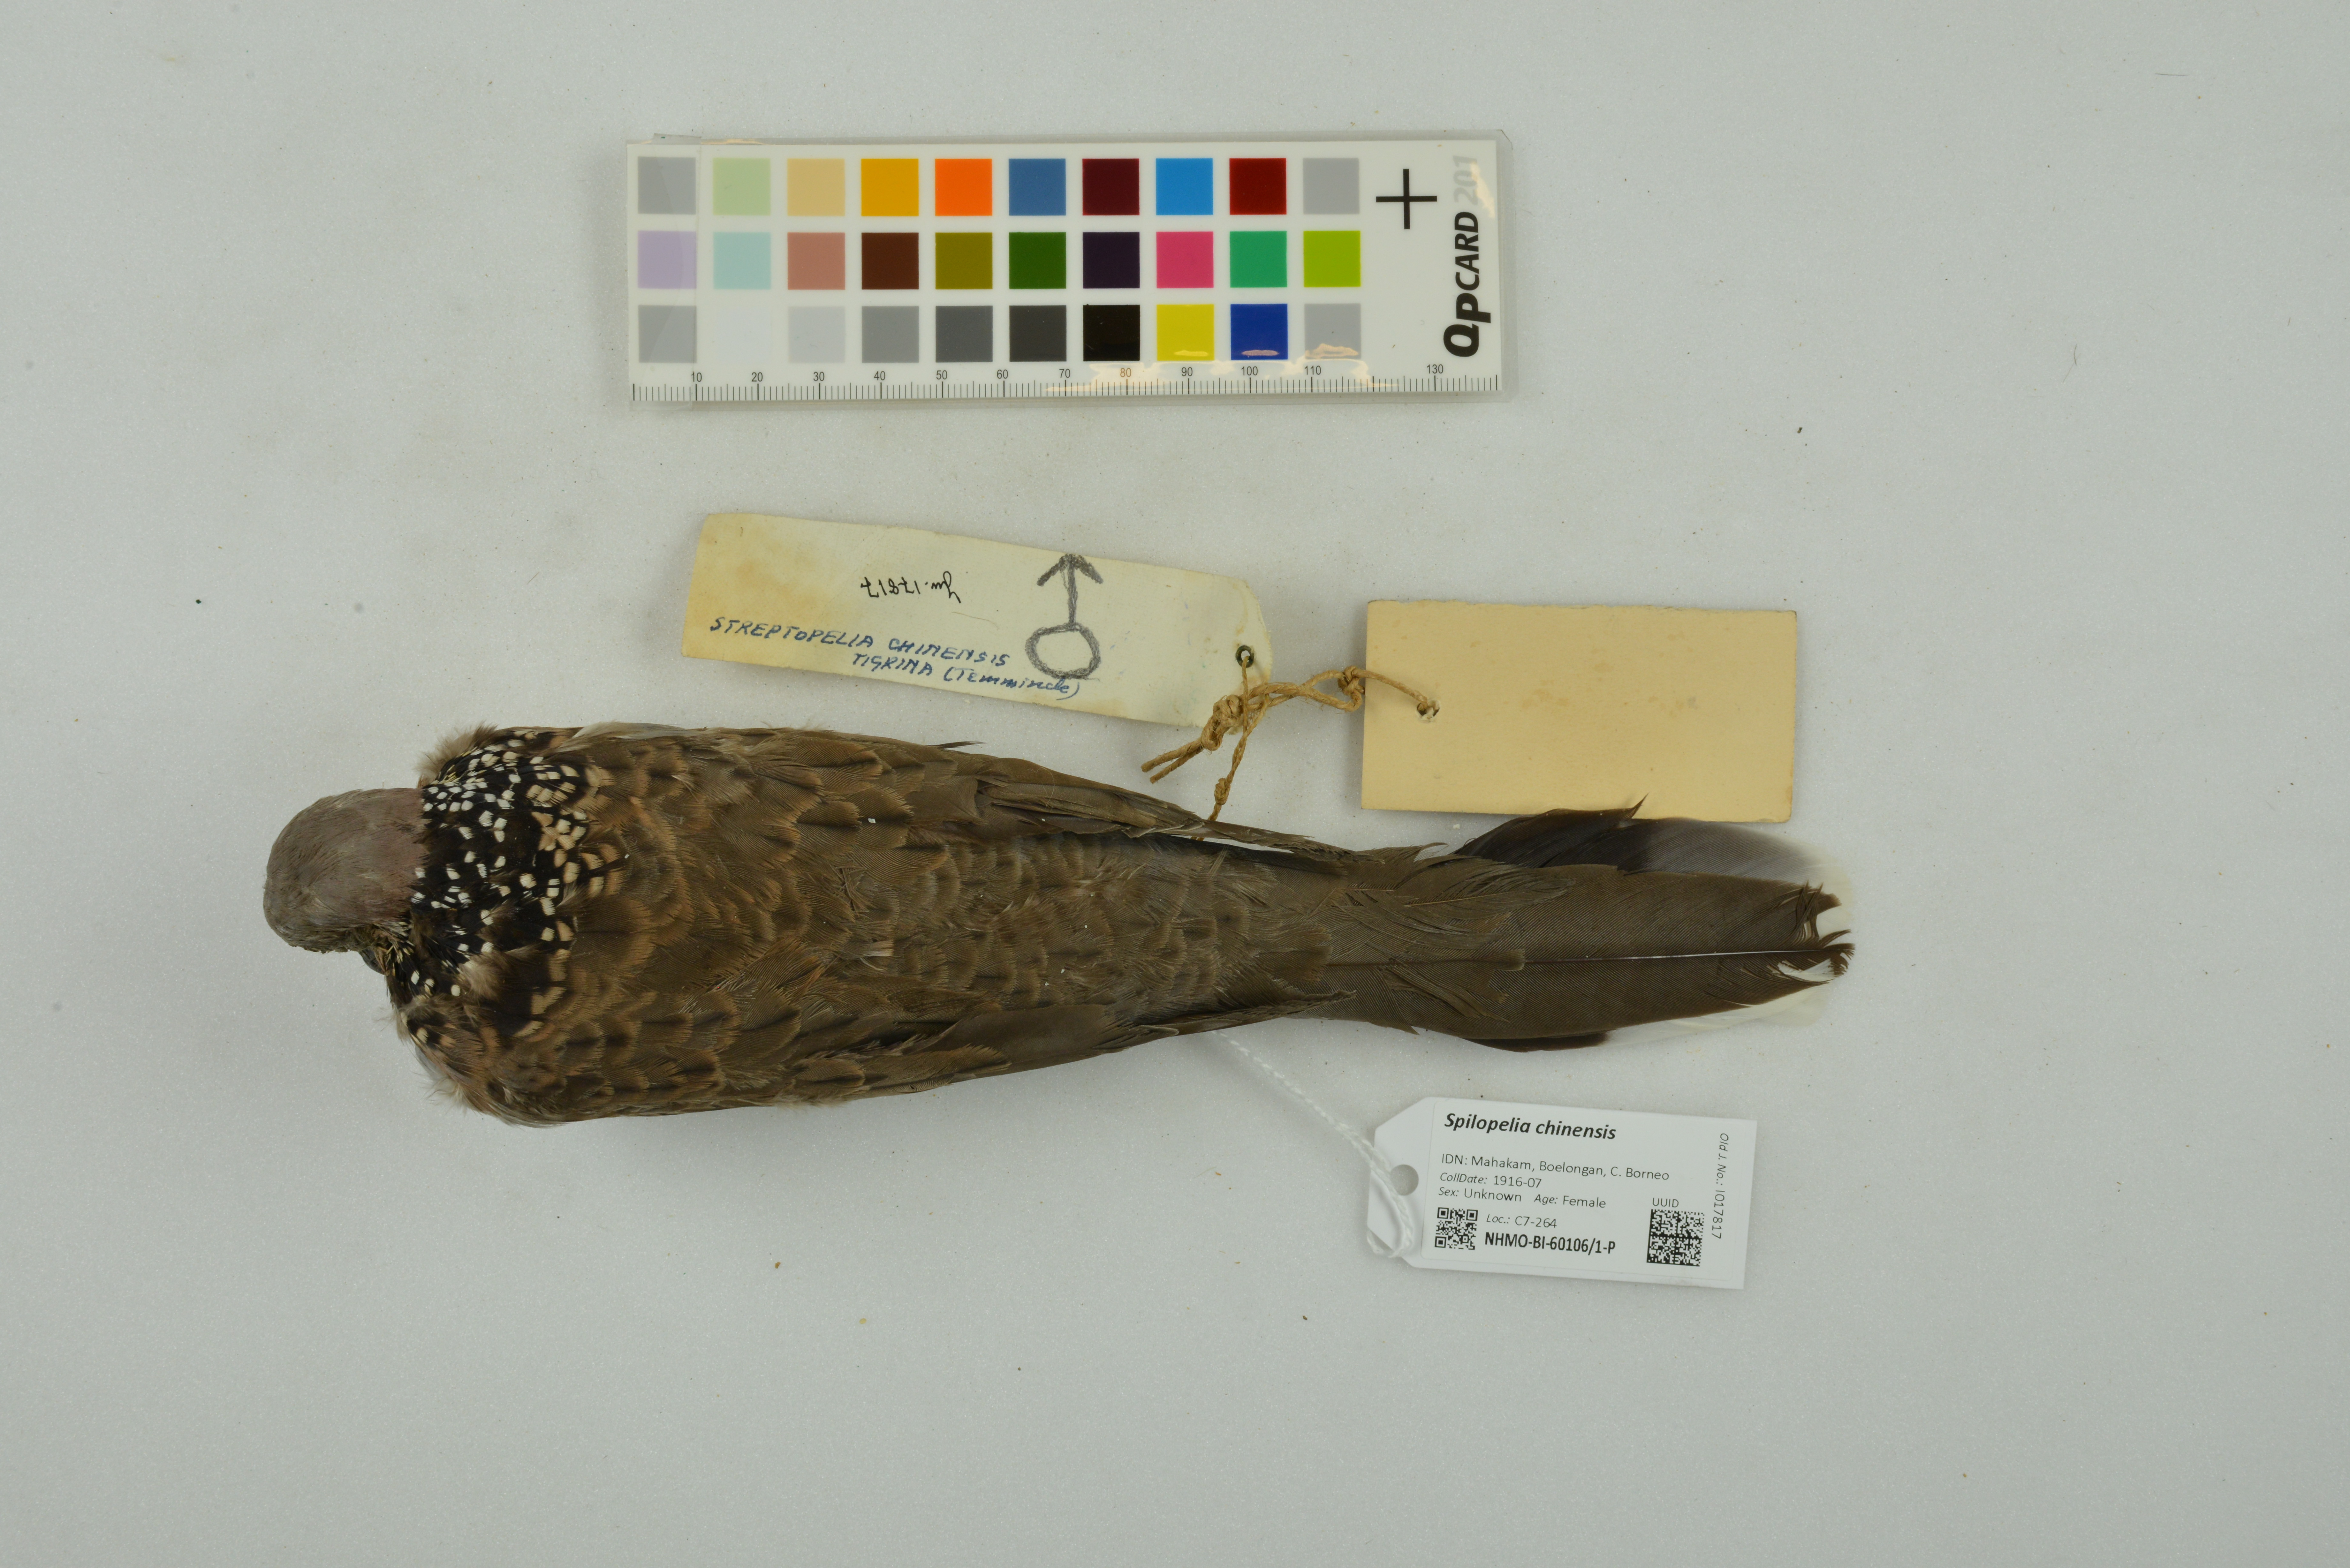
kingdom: Animalia
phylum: Chordata
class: Aves
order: Columbiformes
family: Columbidae
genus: Spilopelia
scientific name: Spilopelia chinensis
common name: Spotted dove
